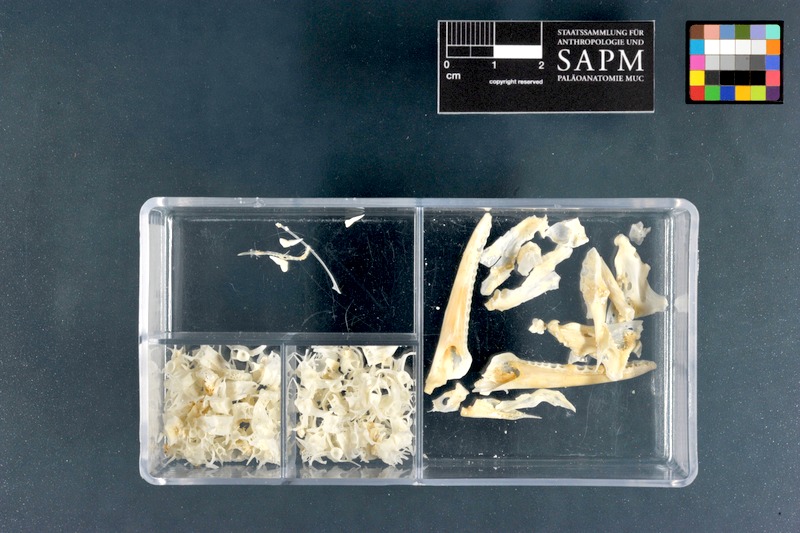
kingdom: Animalia
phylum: Chordata
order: Anguilliformes
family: Muraenidae
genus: Gymnothorax
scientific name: Gymnothorax nigromarginatus
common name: Blackedge moray
